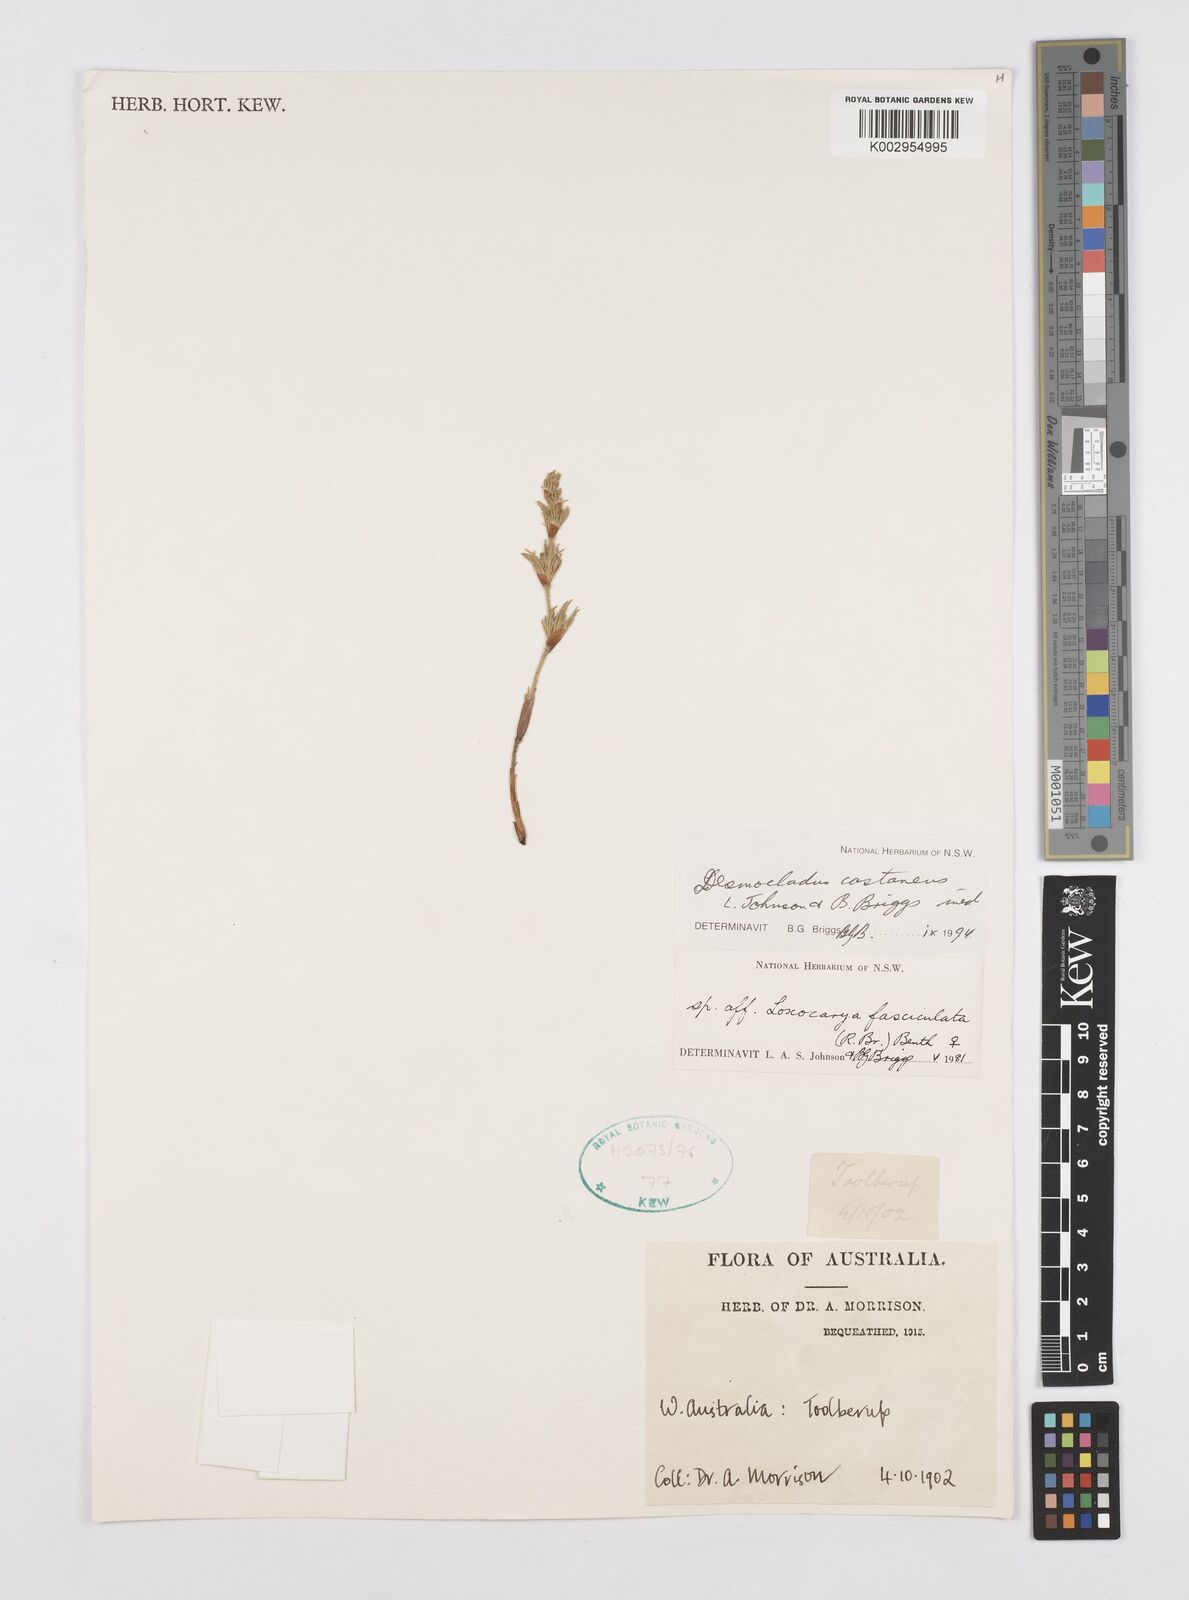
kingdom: Plantae
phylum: Tracheophyta
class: Liliopsida
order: Poales
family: Restionaceae
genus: Desmocladus
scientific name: Desmocladus castaneus
